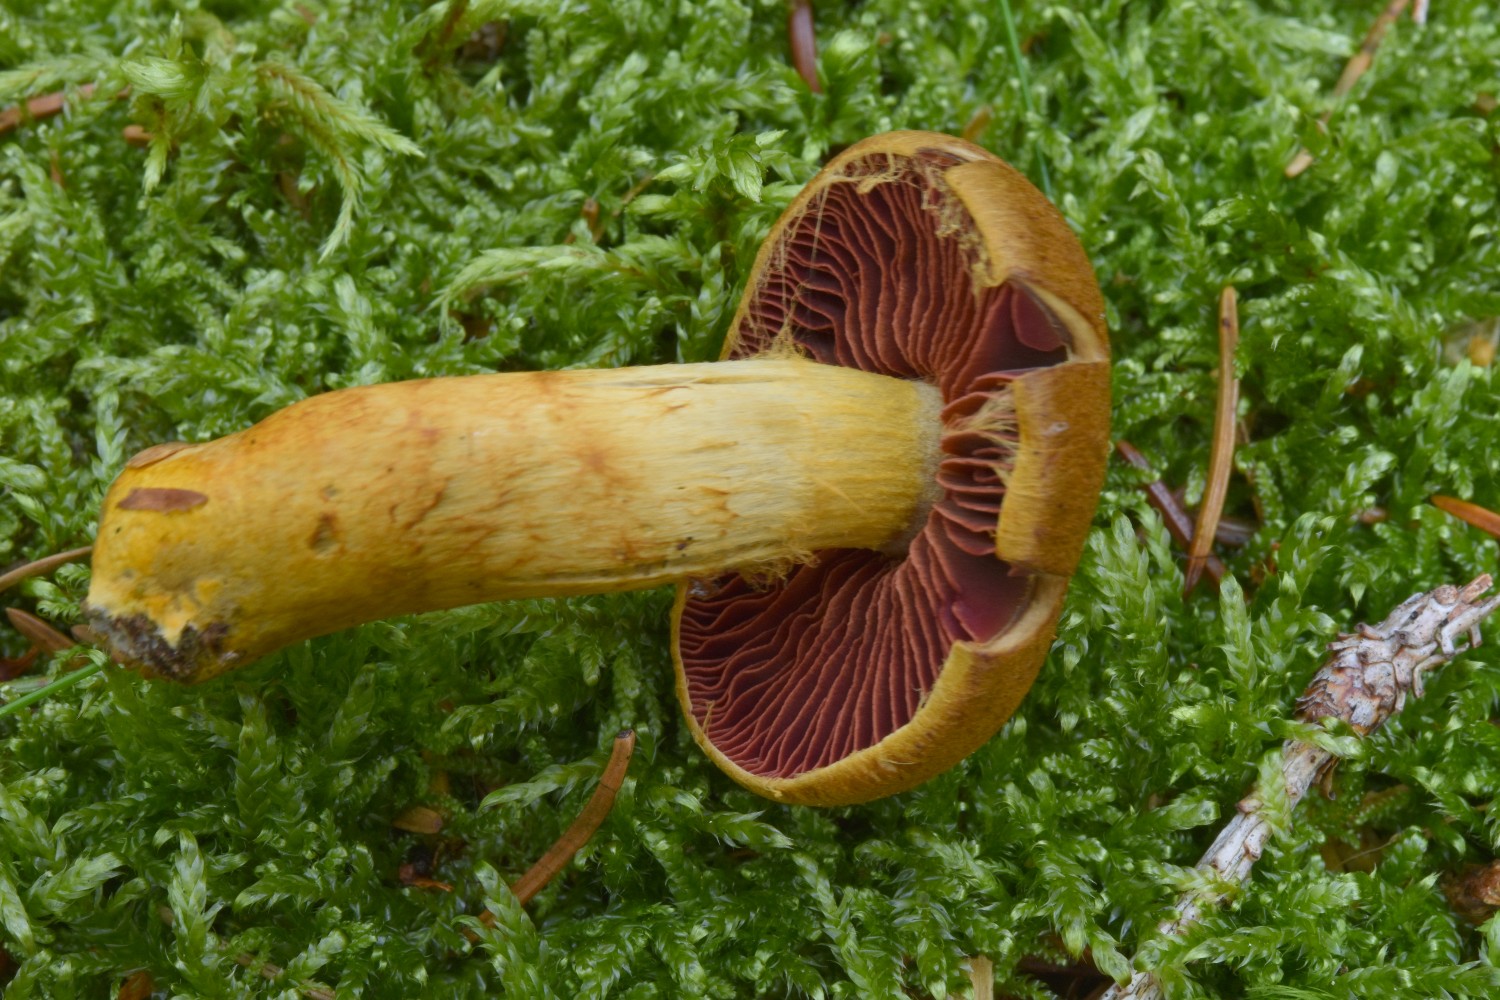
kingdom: Fungi
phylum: Basidiomycota
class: Agaricomycetes
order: Agaricales
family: Cortinariaceae
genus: Cortinarius
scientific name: Cortinarius
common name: cinnoberbladet slørhat
